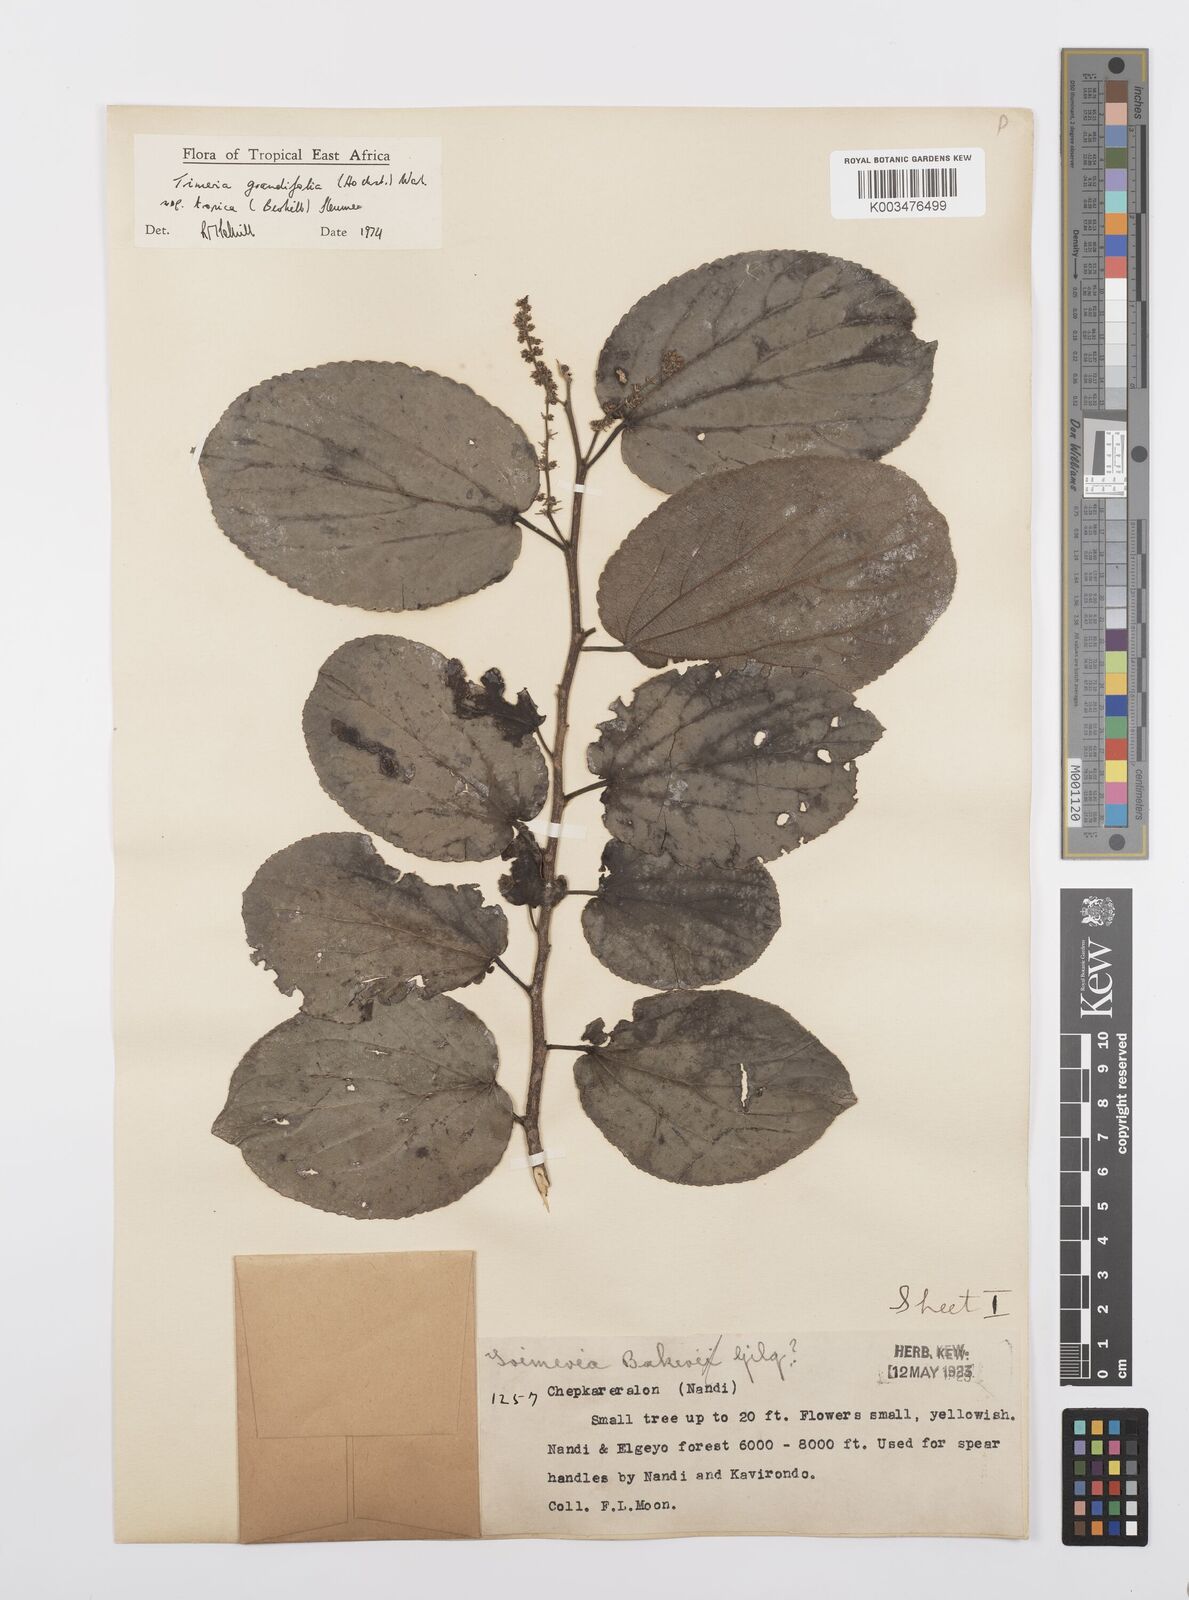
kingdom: Plantae
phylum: Tracheophyta
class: Magnoliopsida
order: Malpighiales
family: Salicaceae
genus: Trimeria
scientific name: Trimeria grandifolia
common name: Wild mulberry
